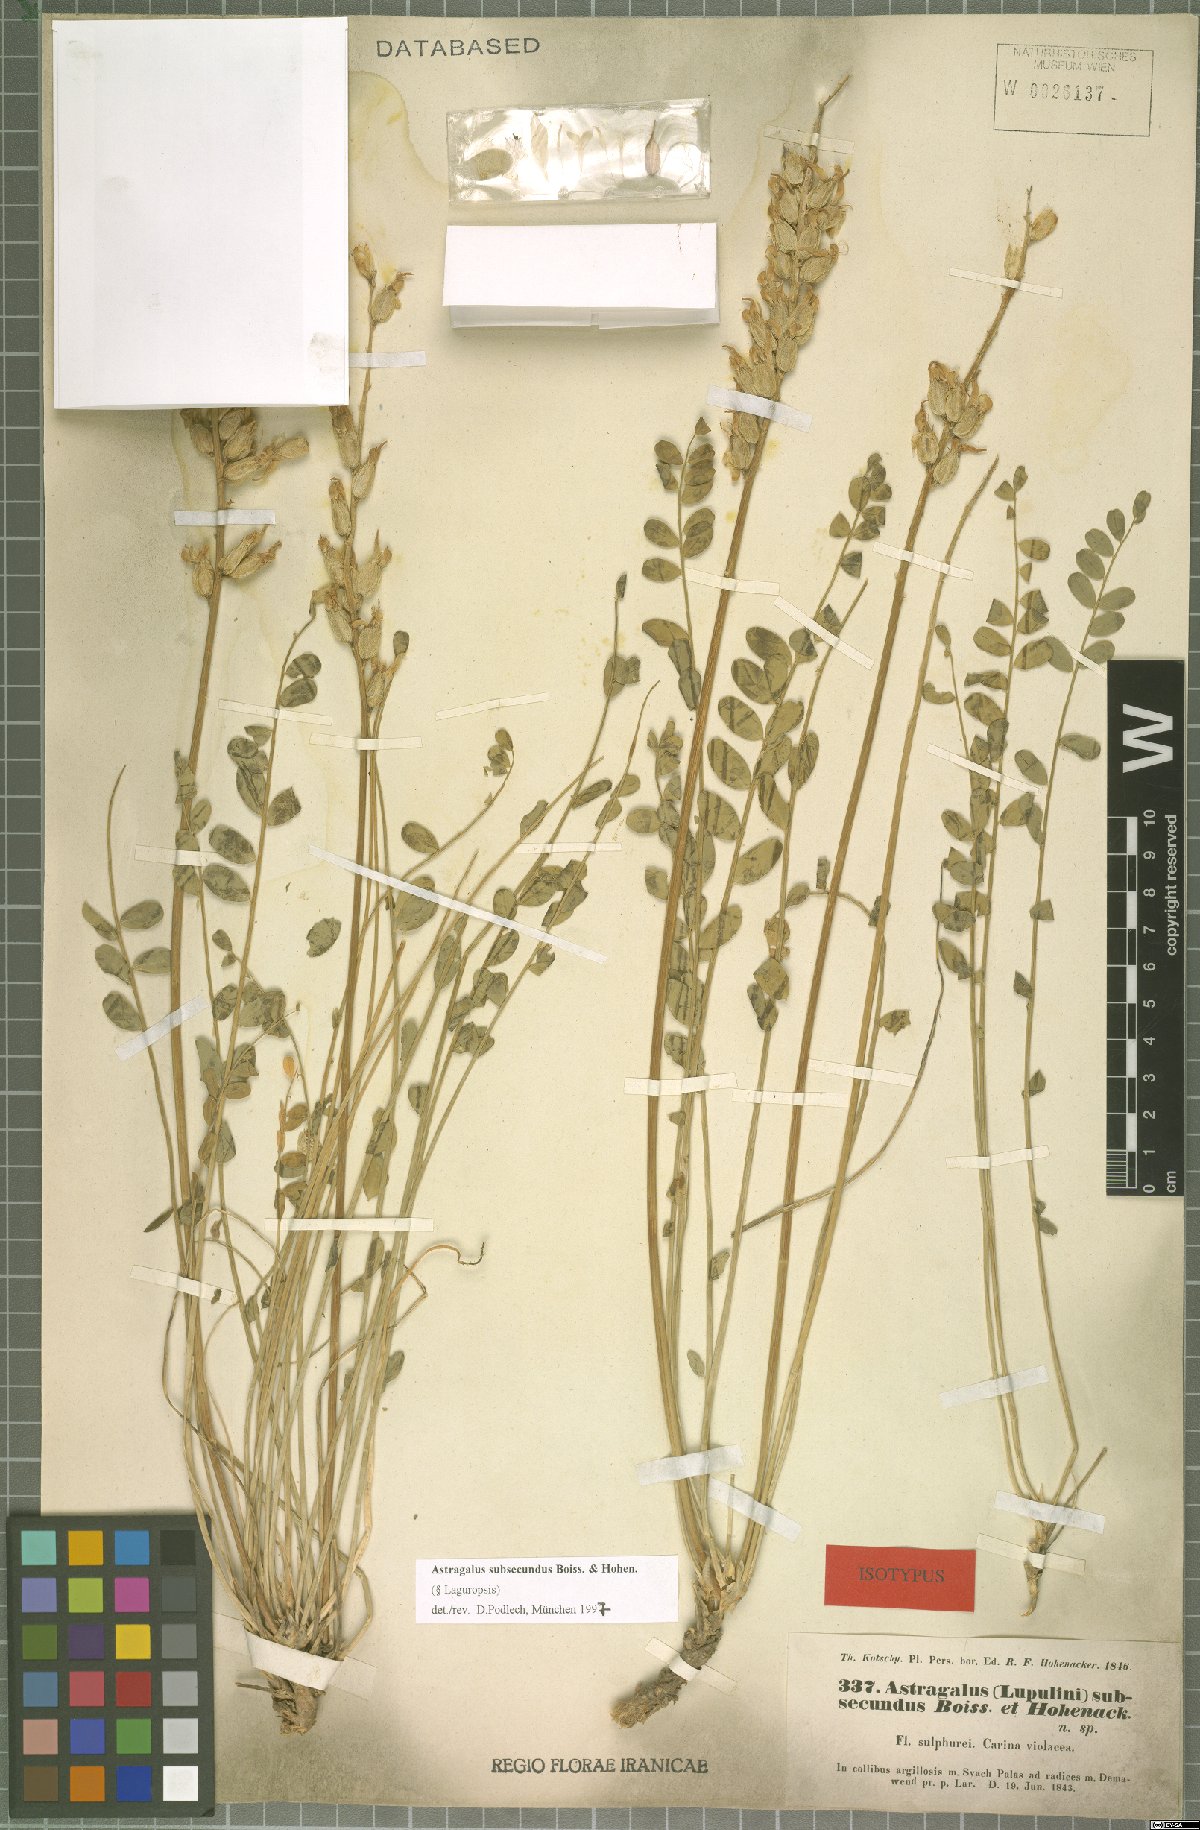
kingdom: Plantae
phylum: Tracheophyta
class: Magnoliopsida
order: Fabales
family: Fabaceae
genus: Astragalus
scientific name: Astragalus subsecundus
